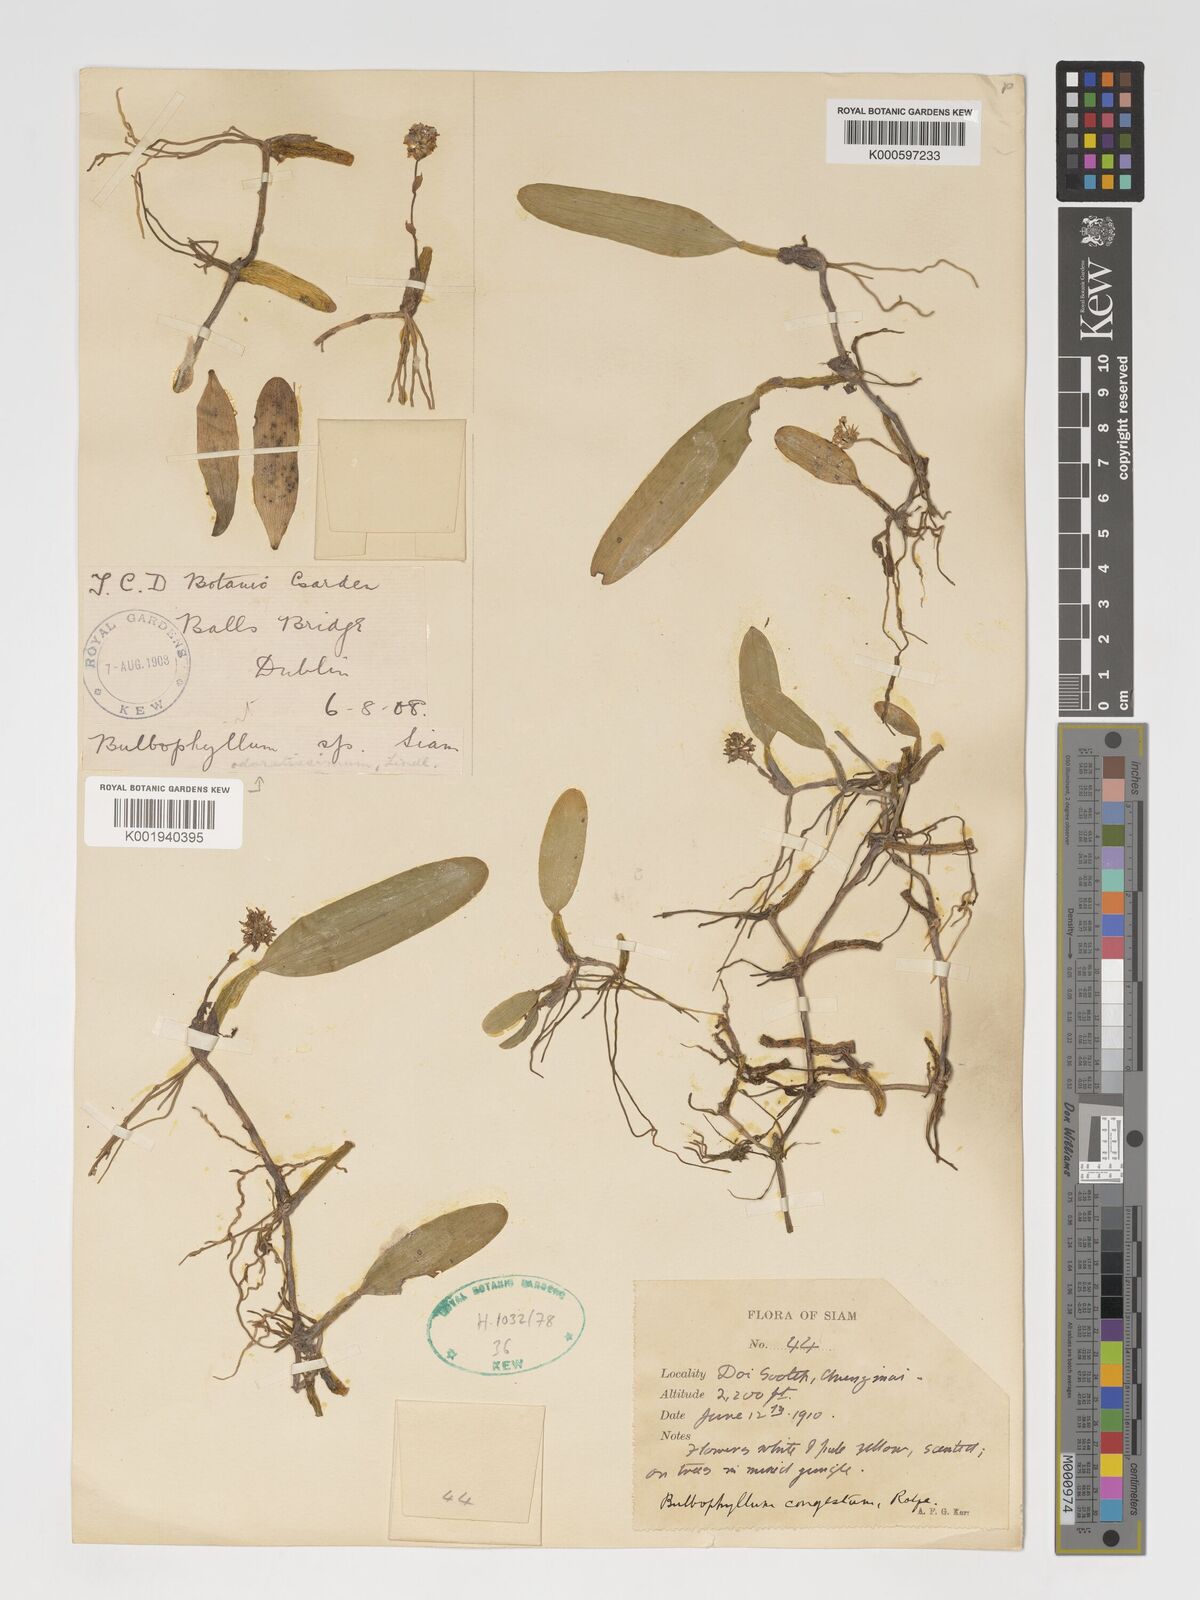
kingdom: Plantae
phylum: Tracheophyta
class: Liliopsida
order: Asparagales
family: Orchidaceae
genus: Bulbophyllum
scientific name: Bulbophyllum odoratissimum
